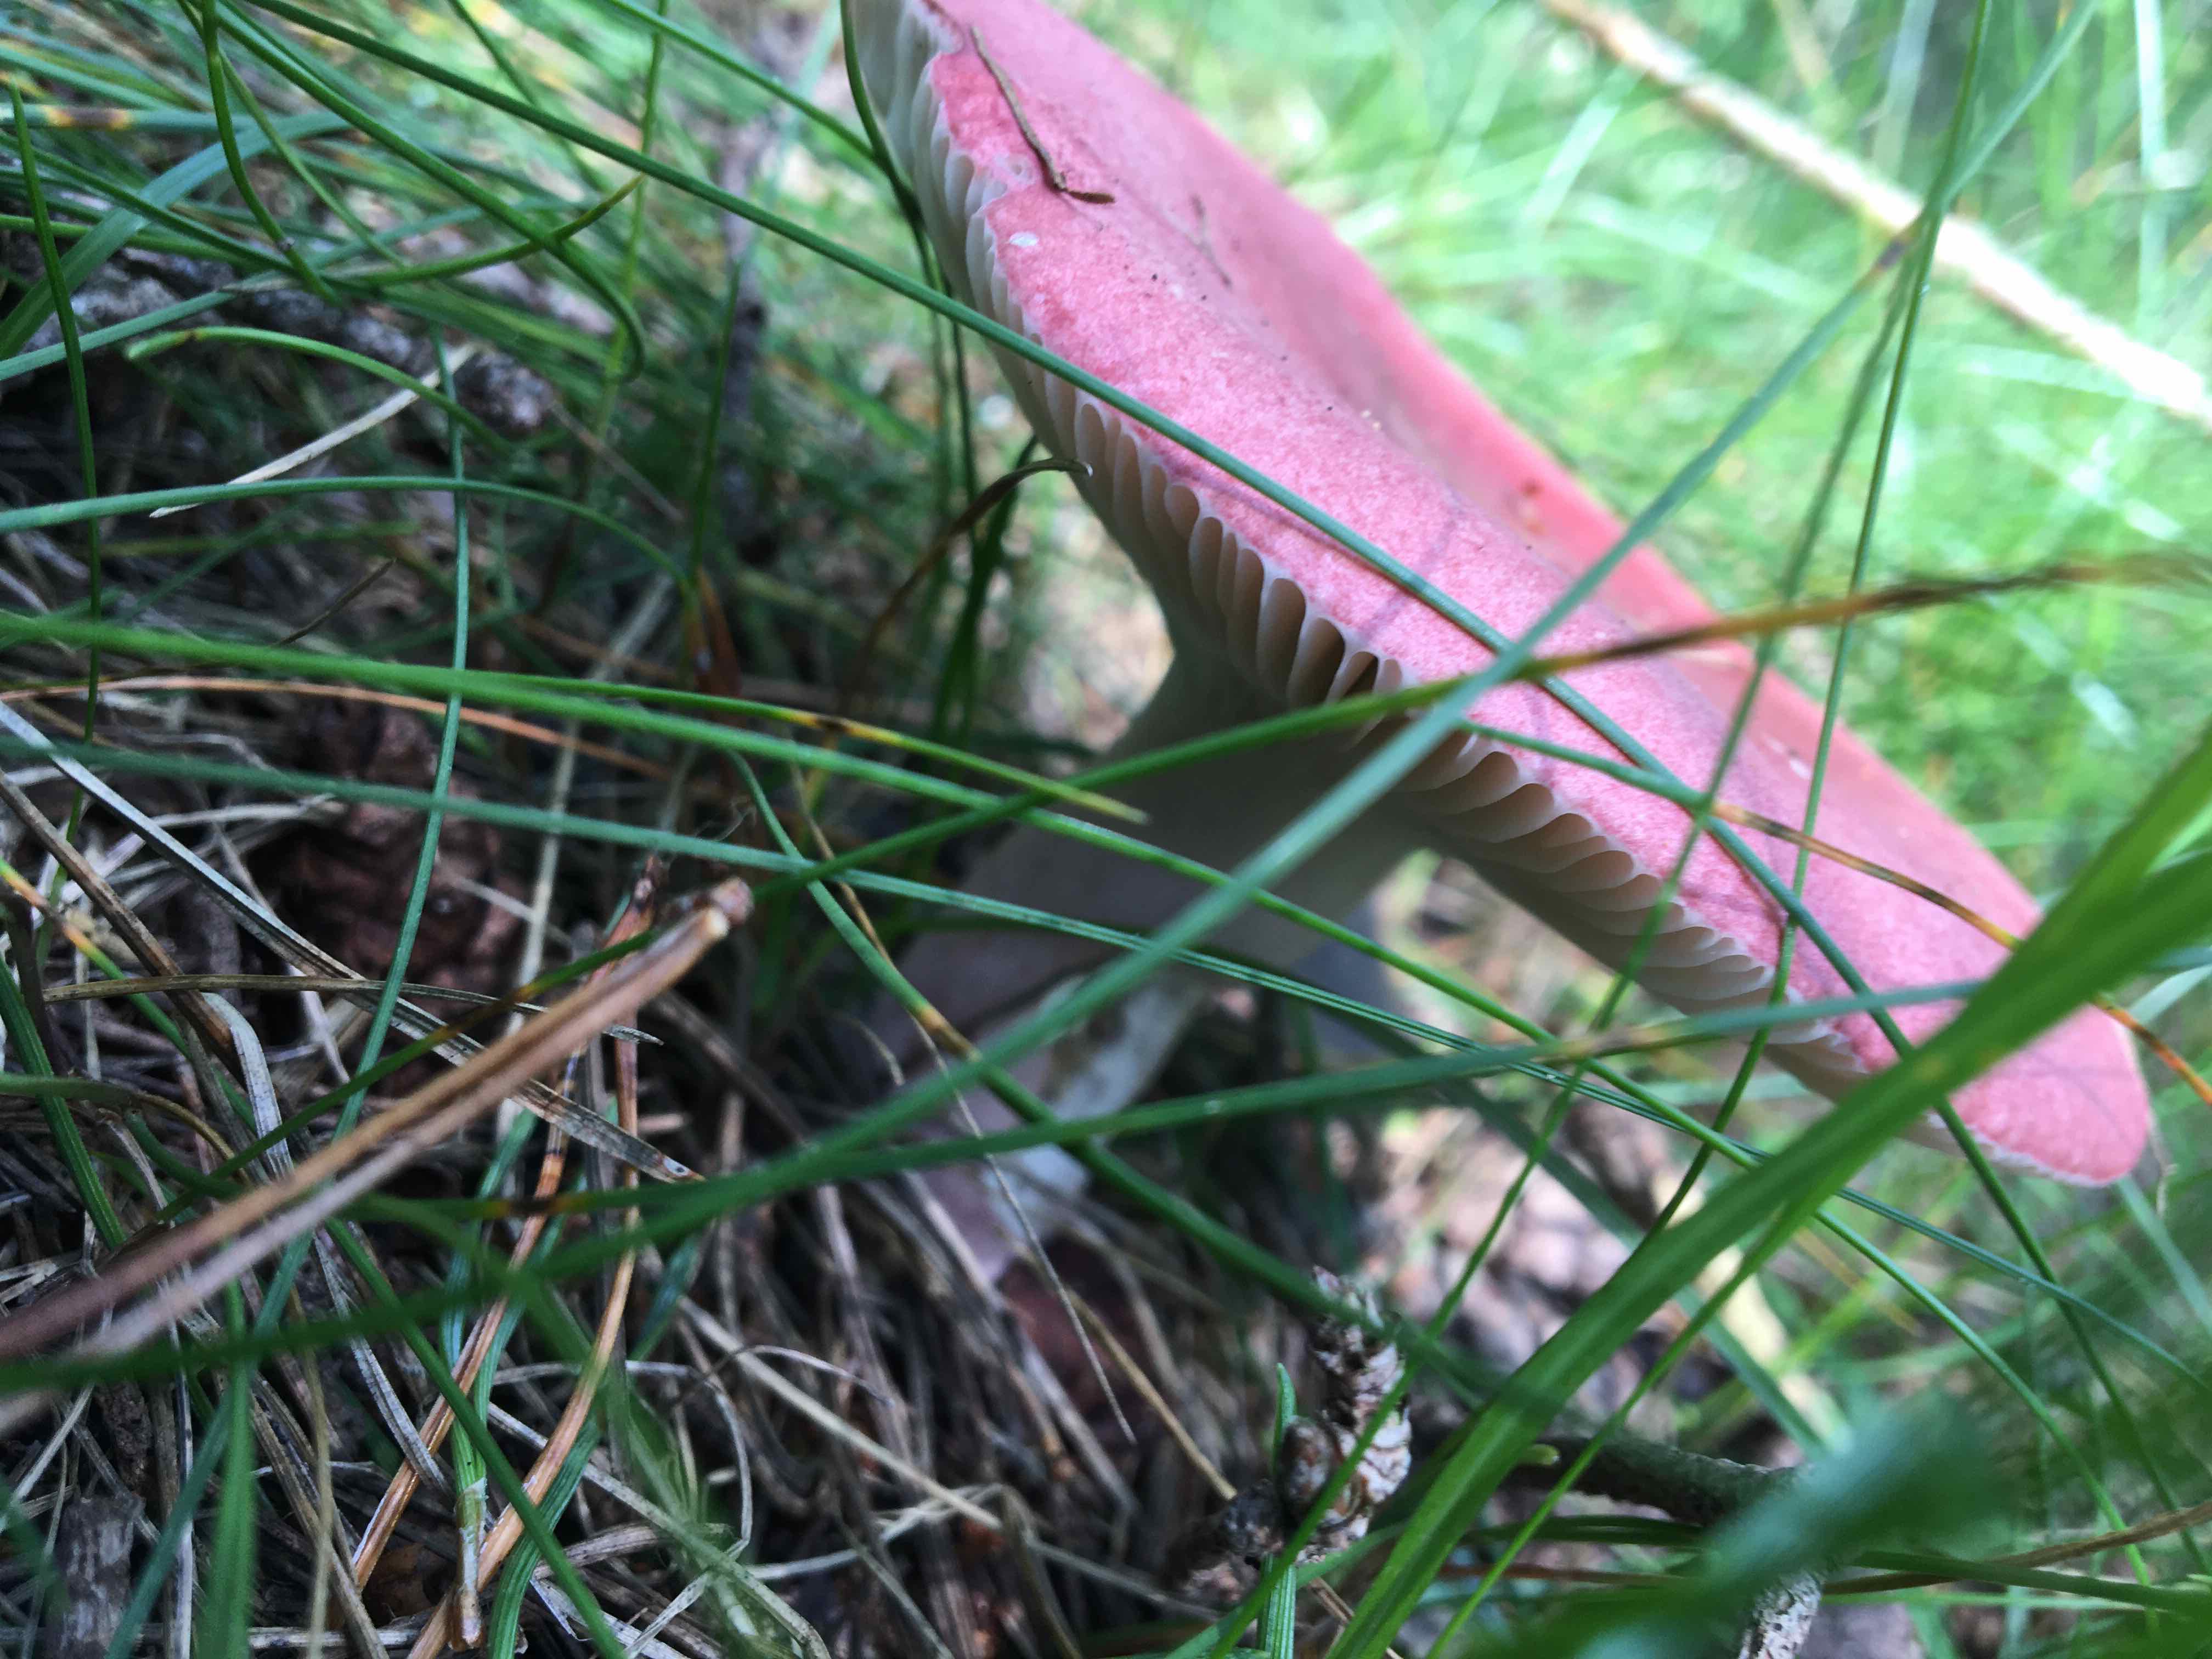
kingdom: Fungi
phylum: Basidiomycota
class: Agaricomycetes
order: Russulales
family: Russulaceae
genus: Russula
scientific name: Russula
